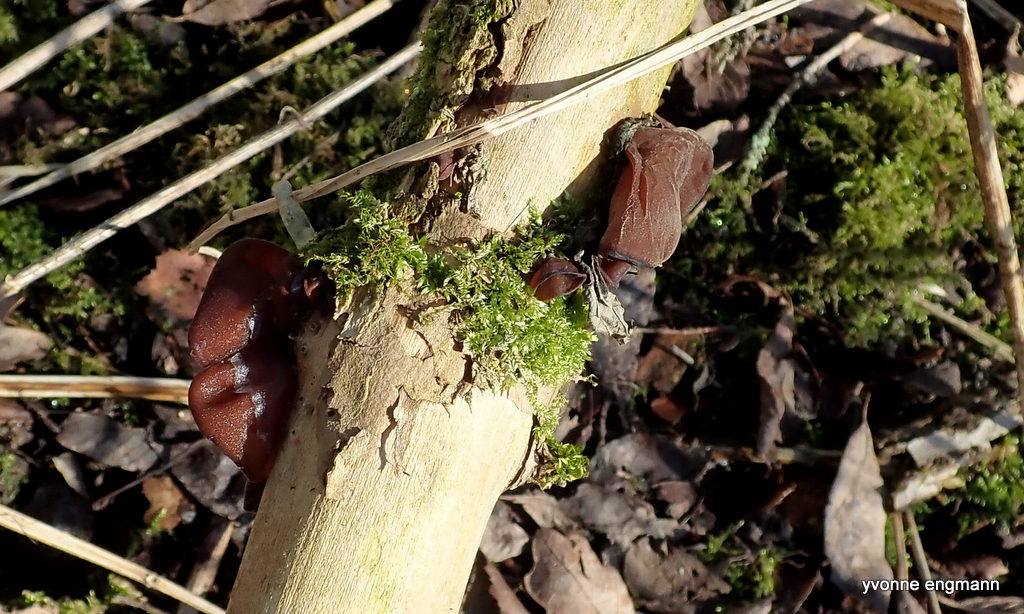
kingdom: Fungi
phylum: Basidiomycota
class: Agaricomycetes
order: Auriculariales
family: Auriculariaceae
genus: Auricularia
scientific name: Auricularia auricula-judae
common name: almindelig judasøre
